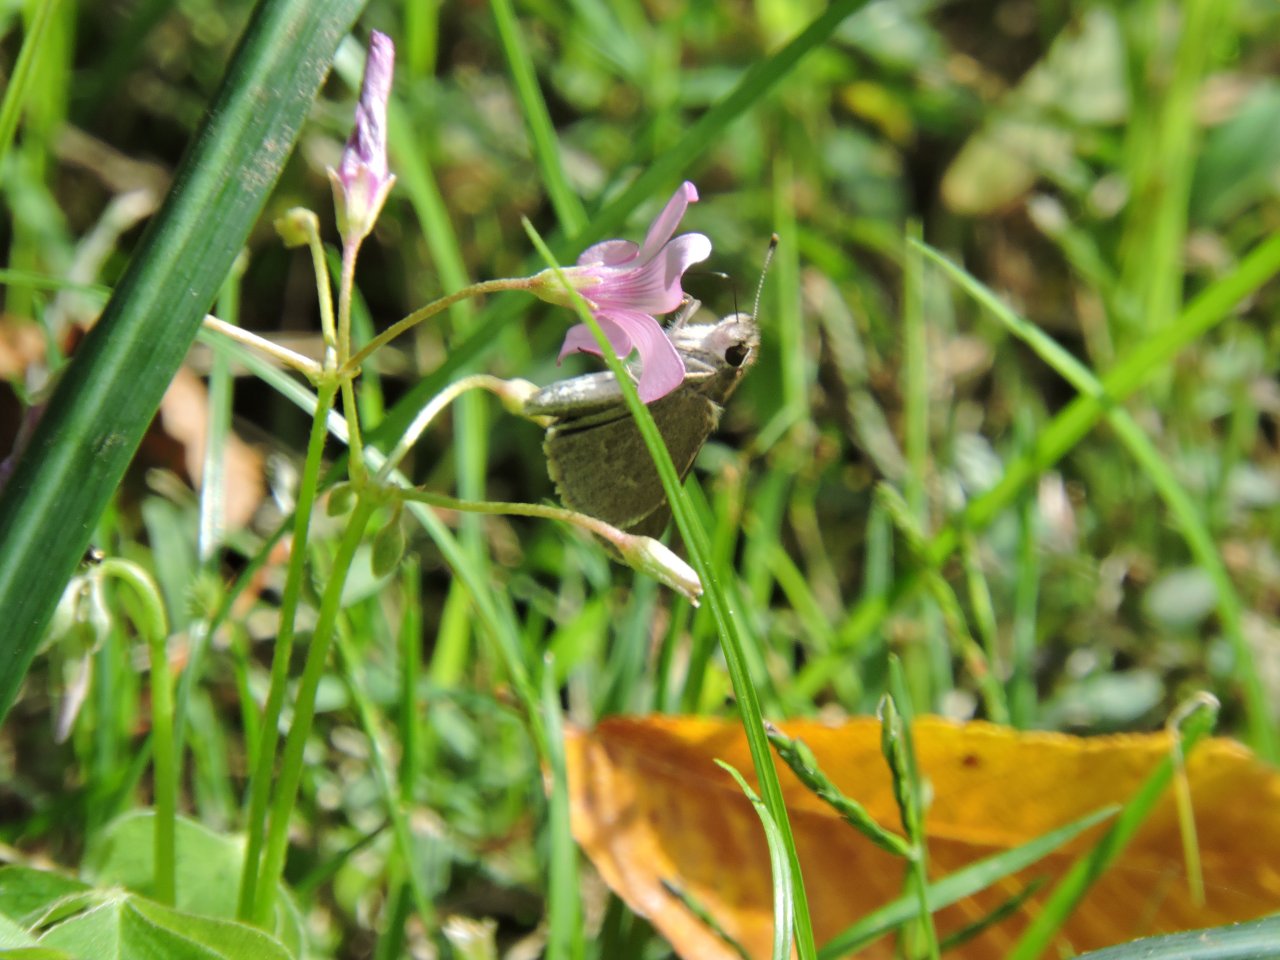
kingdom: Animalia
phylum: Arthropoda
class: Insecta
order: Lepidoptera
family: Hesperiidae
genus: Lerodea
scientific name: Lerodea eufala
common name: Eufala Skipper
